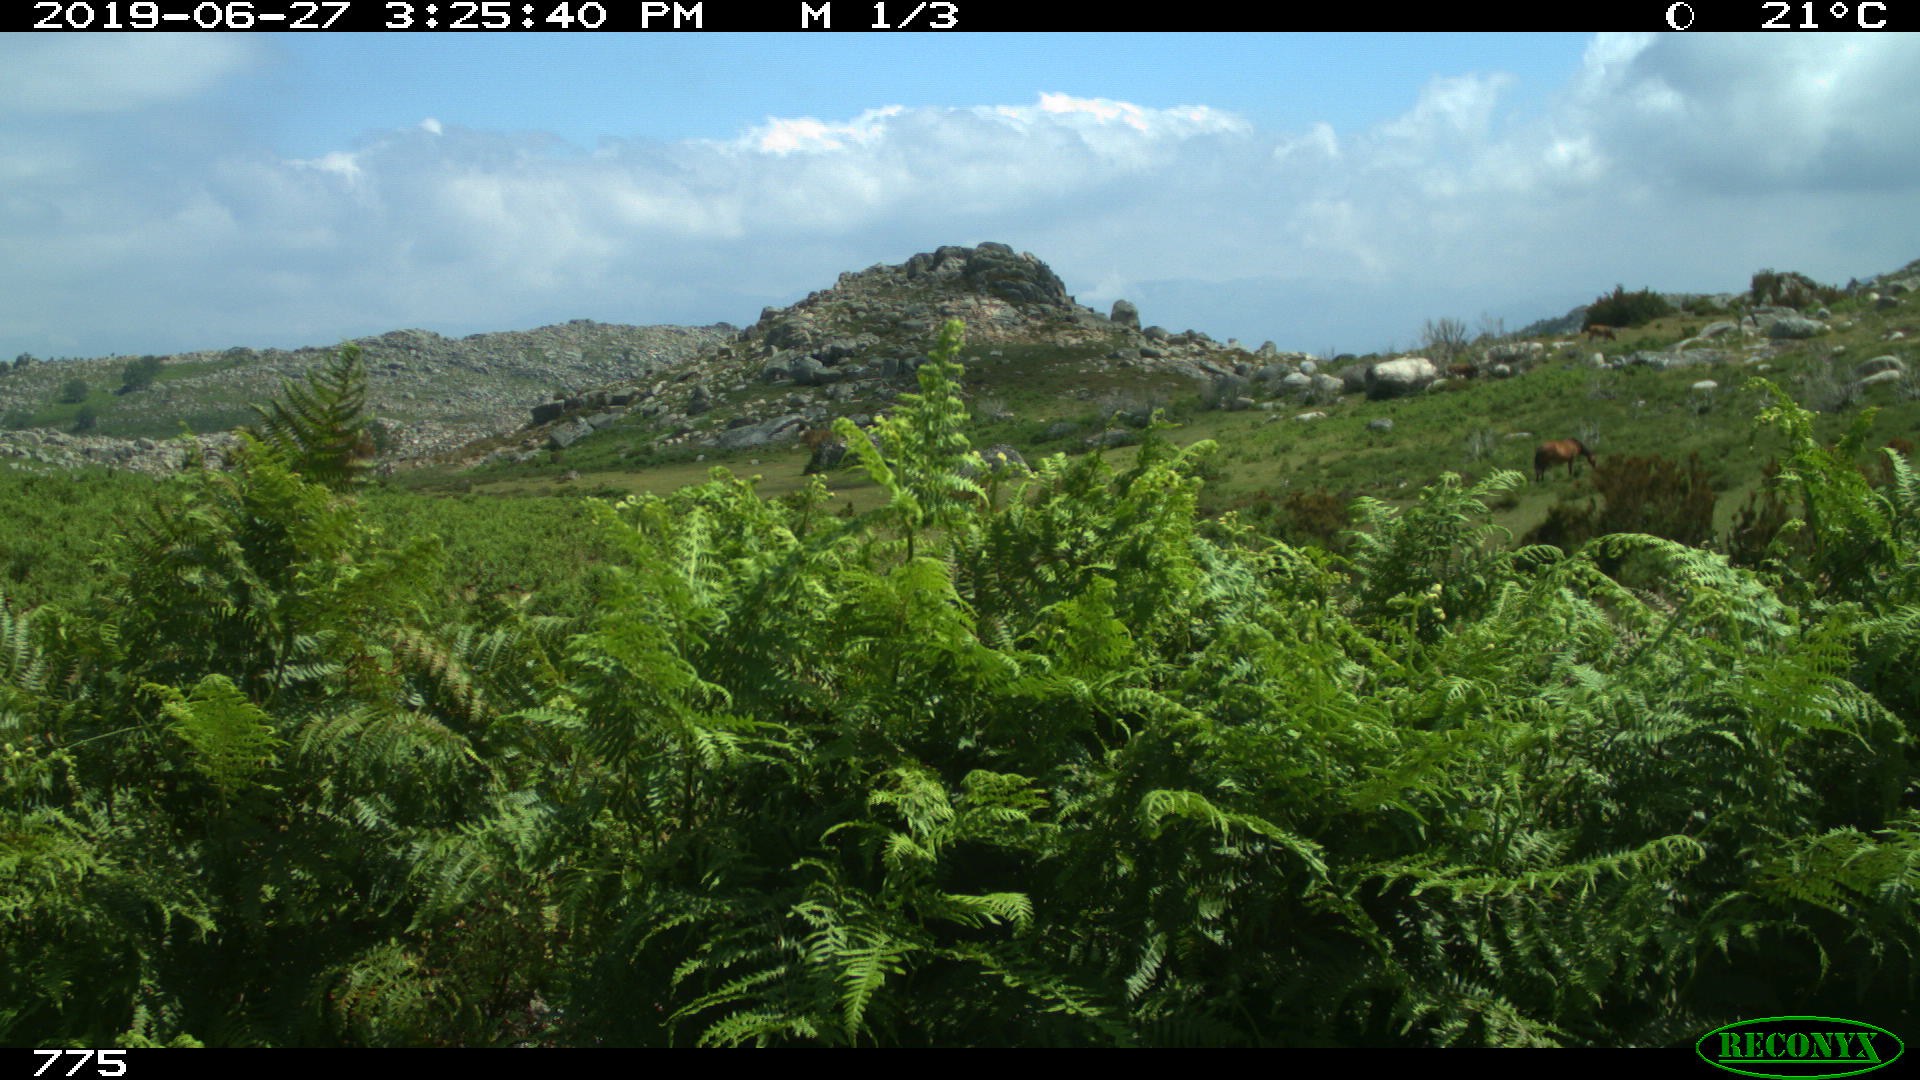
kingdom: Animalia
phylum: Chordata
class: Mammalia
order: Perissodactyla
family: Equidae
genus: Equus
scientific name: Equus caballus
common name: Horse
